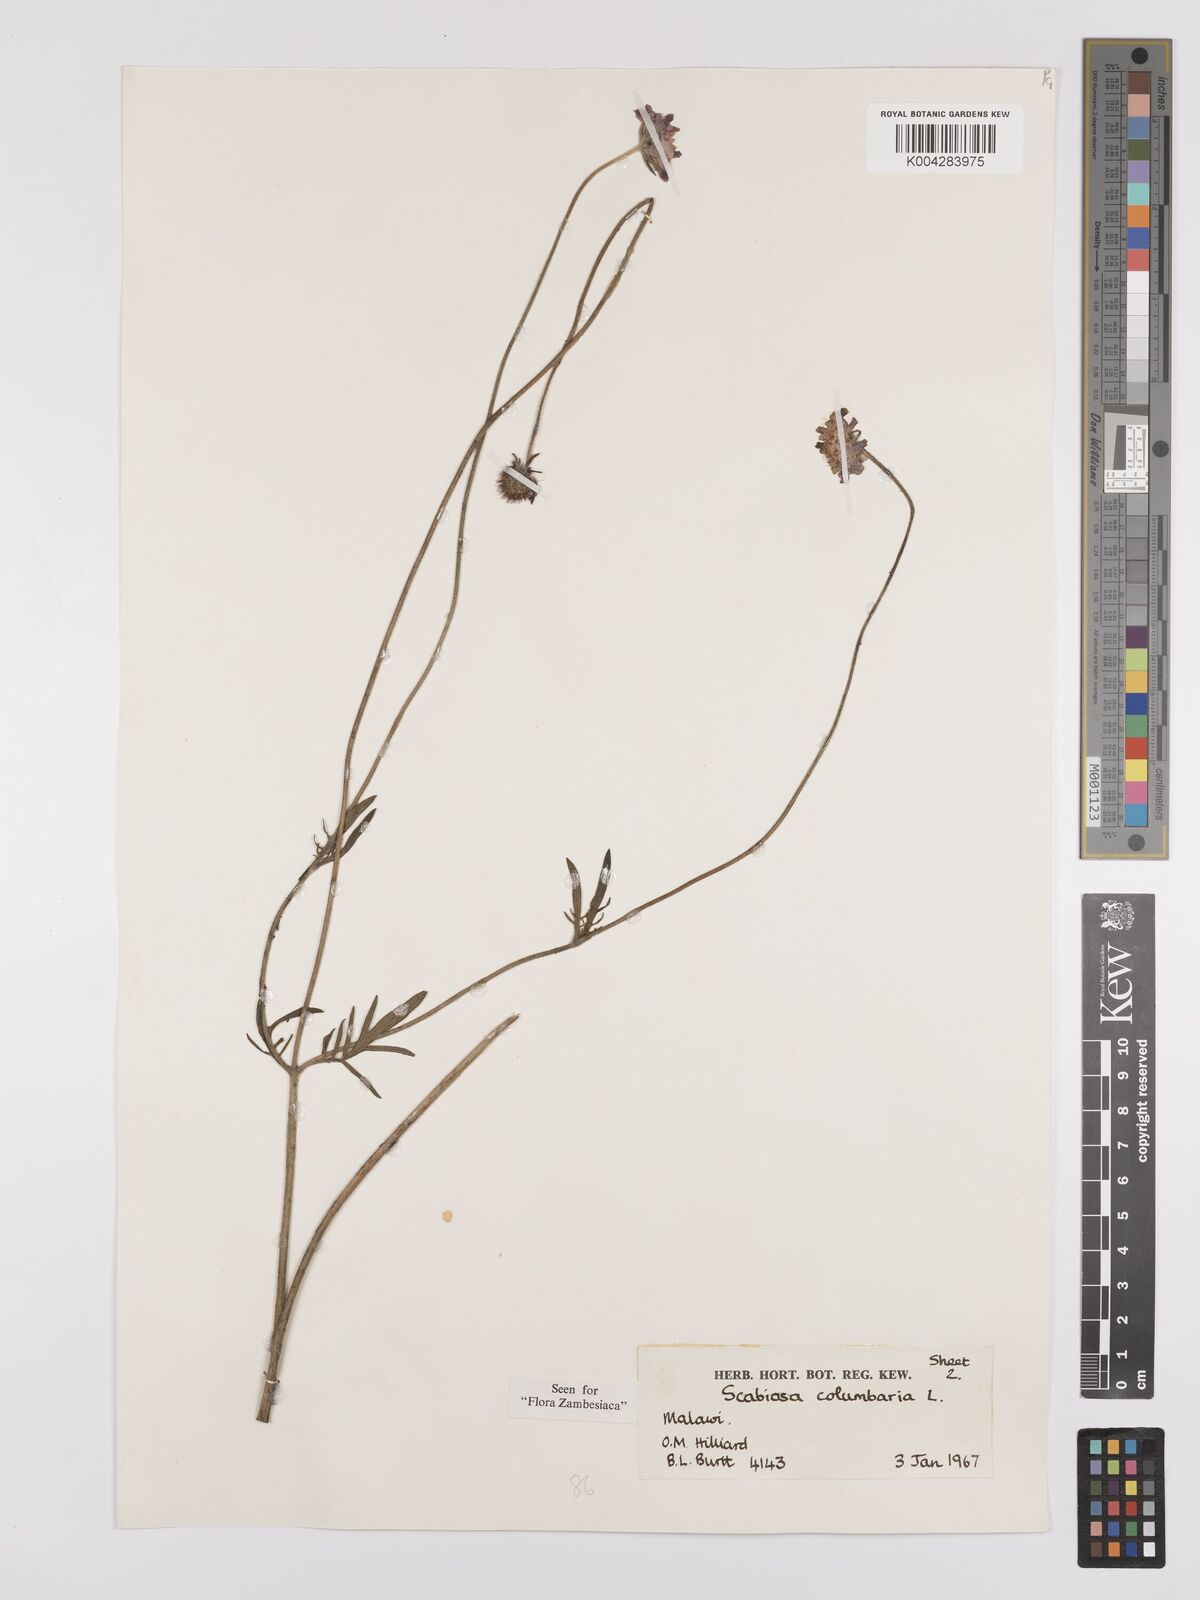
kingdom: Plantae
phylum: Tracheophyta
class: Magnoliopsida
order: Dipsacales
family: Caprifoliaceae
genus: Scabiosa
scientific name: Scabiosa columbaria
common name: Small scabious
